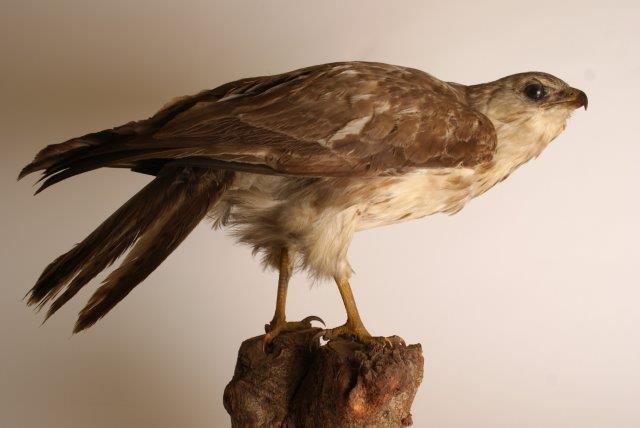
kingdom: Animalia
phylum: Chordata
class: Aves
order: Accipitriformes
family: Accipitridae
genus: Buteo
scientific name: Buteo buteo
